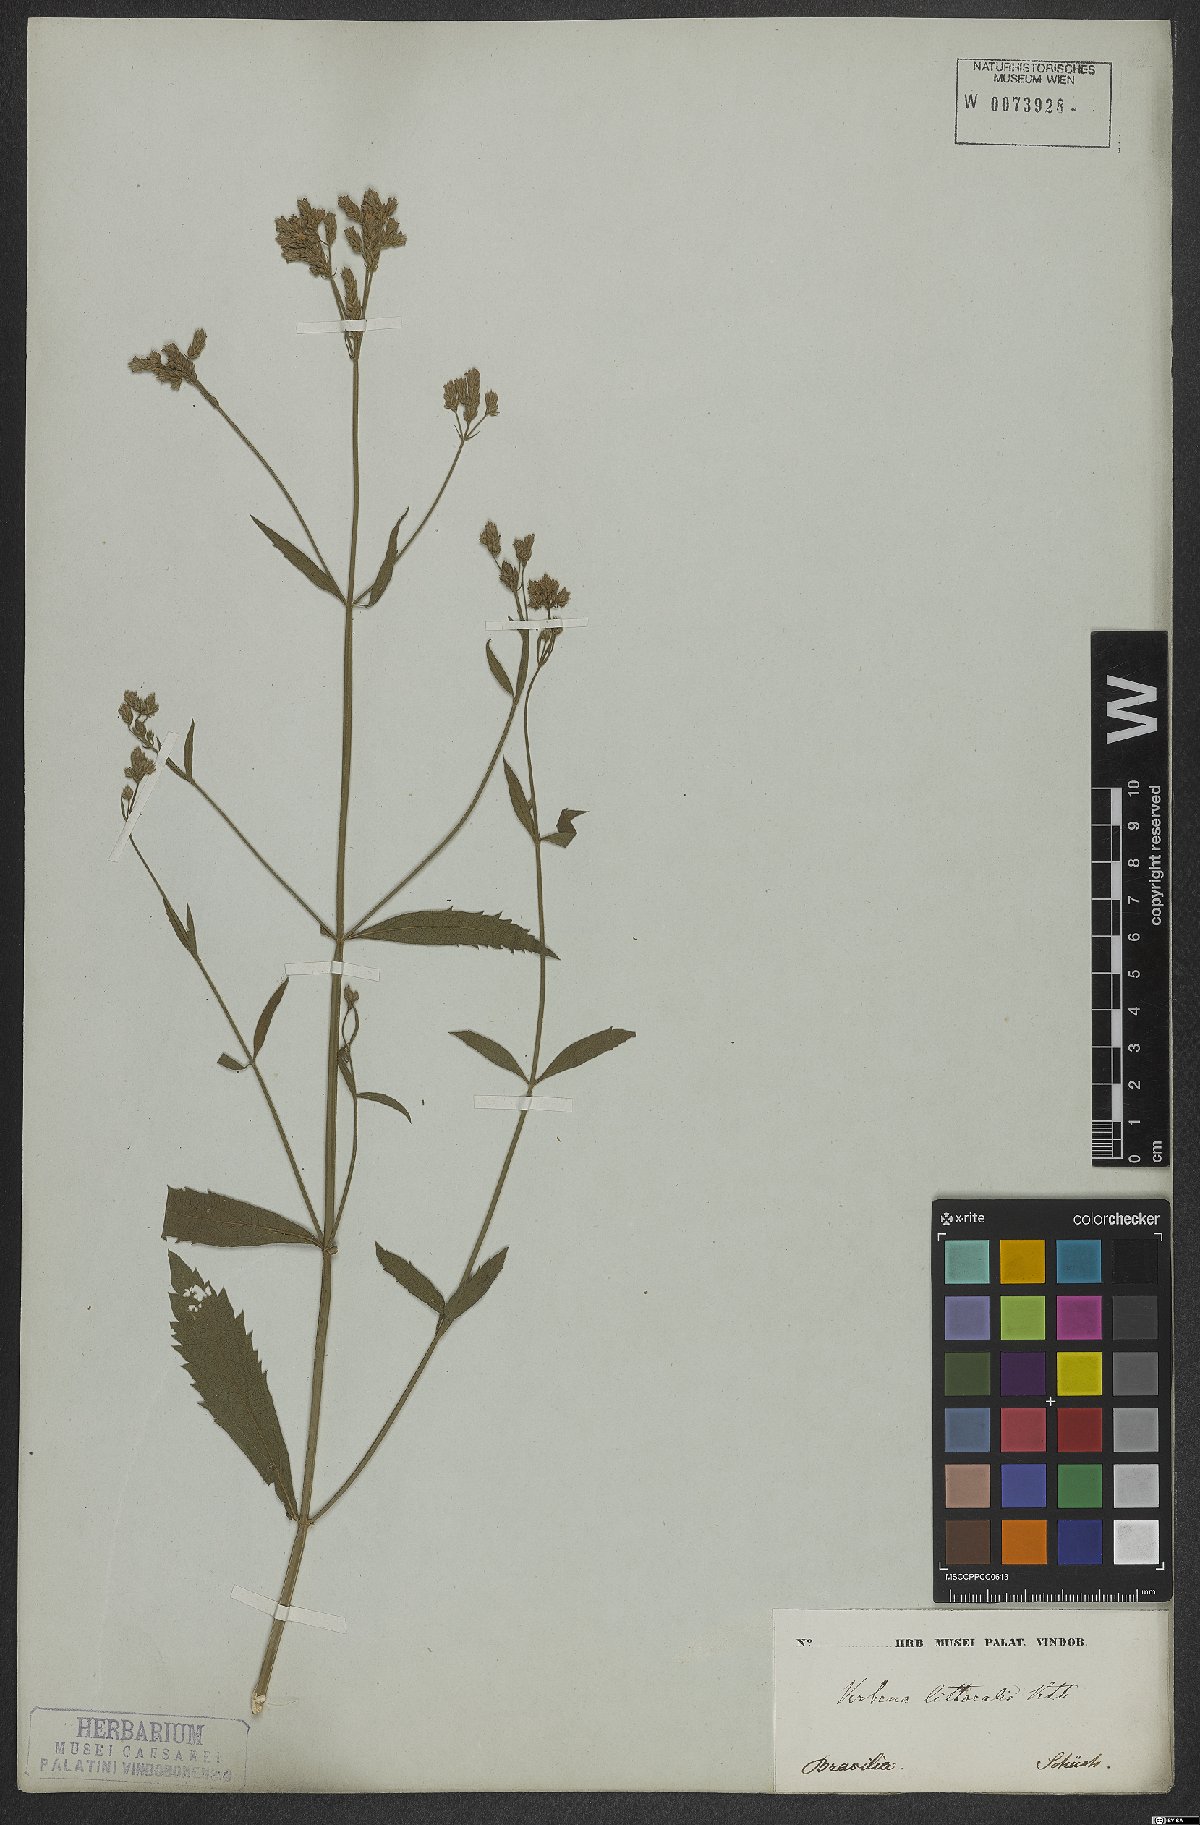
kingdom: Plantae
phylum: Tracheophyta
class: Magnoliopsida
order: Lamiales
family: Verbenaceae
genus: Verbena
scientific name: Verbena litoralis
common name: Seashore vervain
